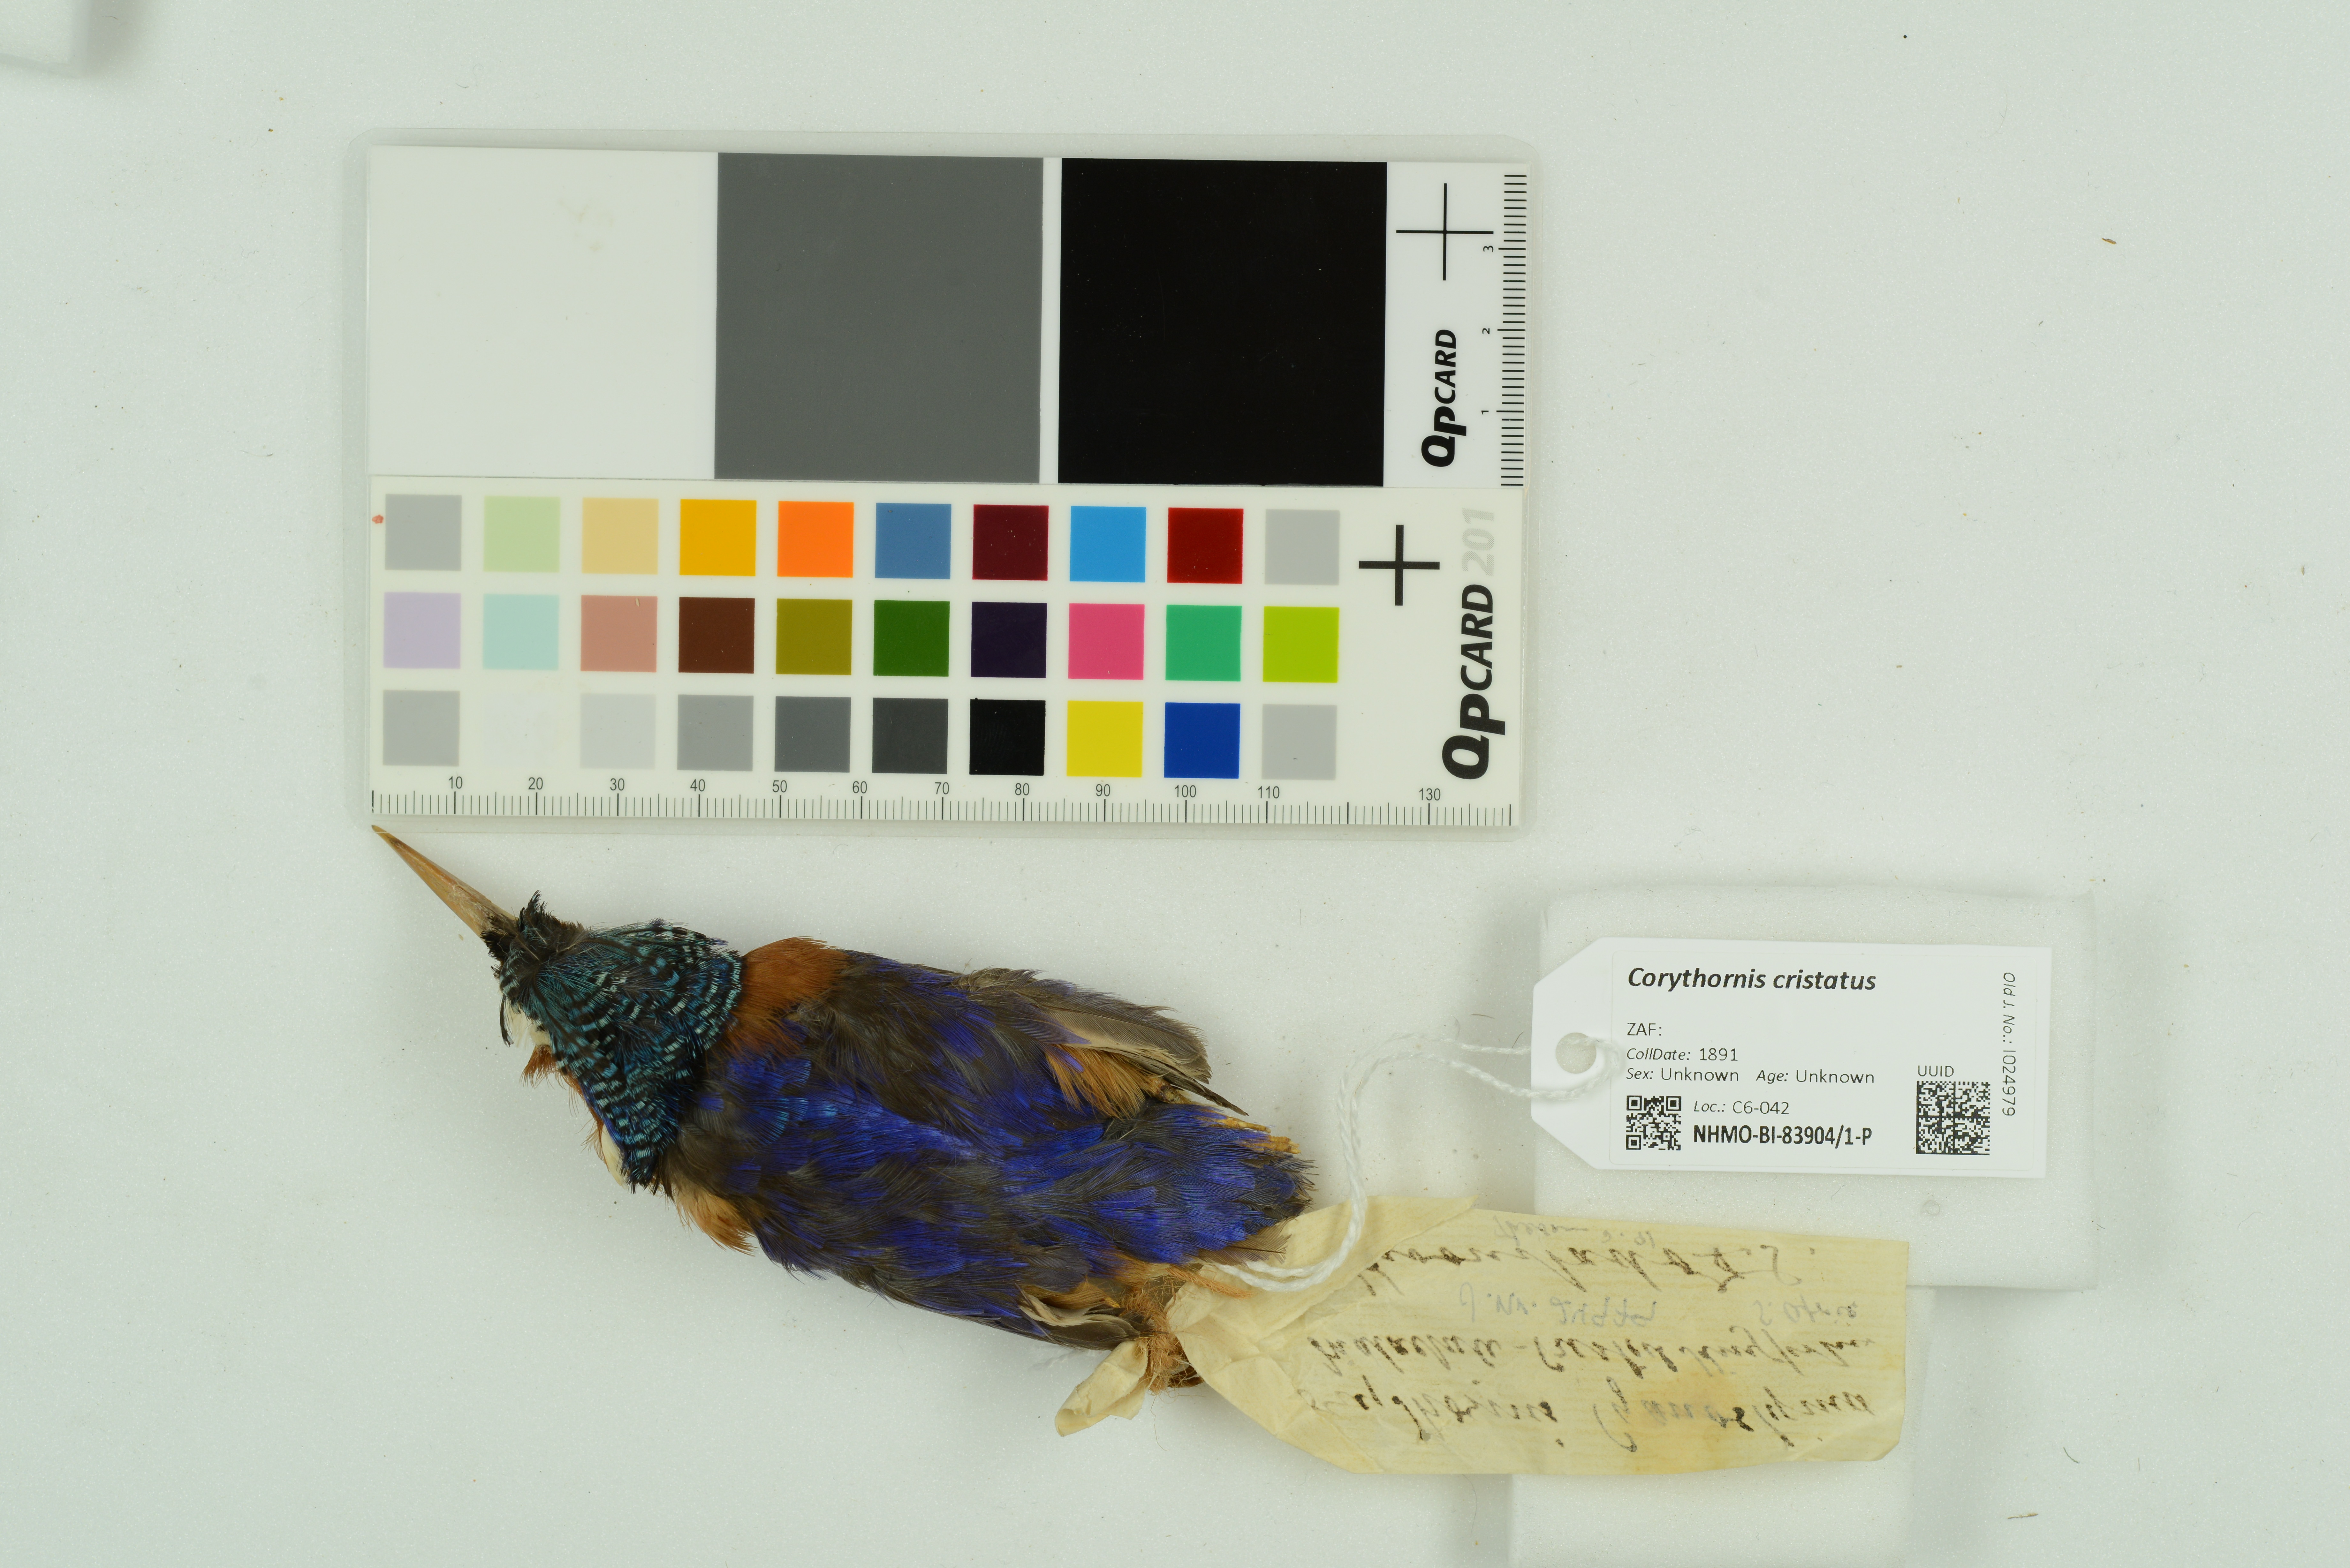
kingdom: Animalia
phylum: Chordata
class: Aves
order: Coraciiformes
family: Alcedinidae
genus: Corythornis
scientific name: Corythornis cristatus
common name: Malachite kingfisher
